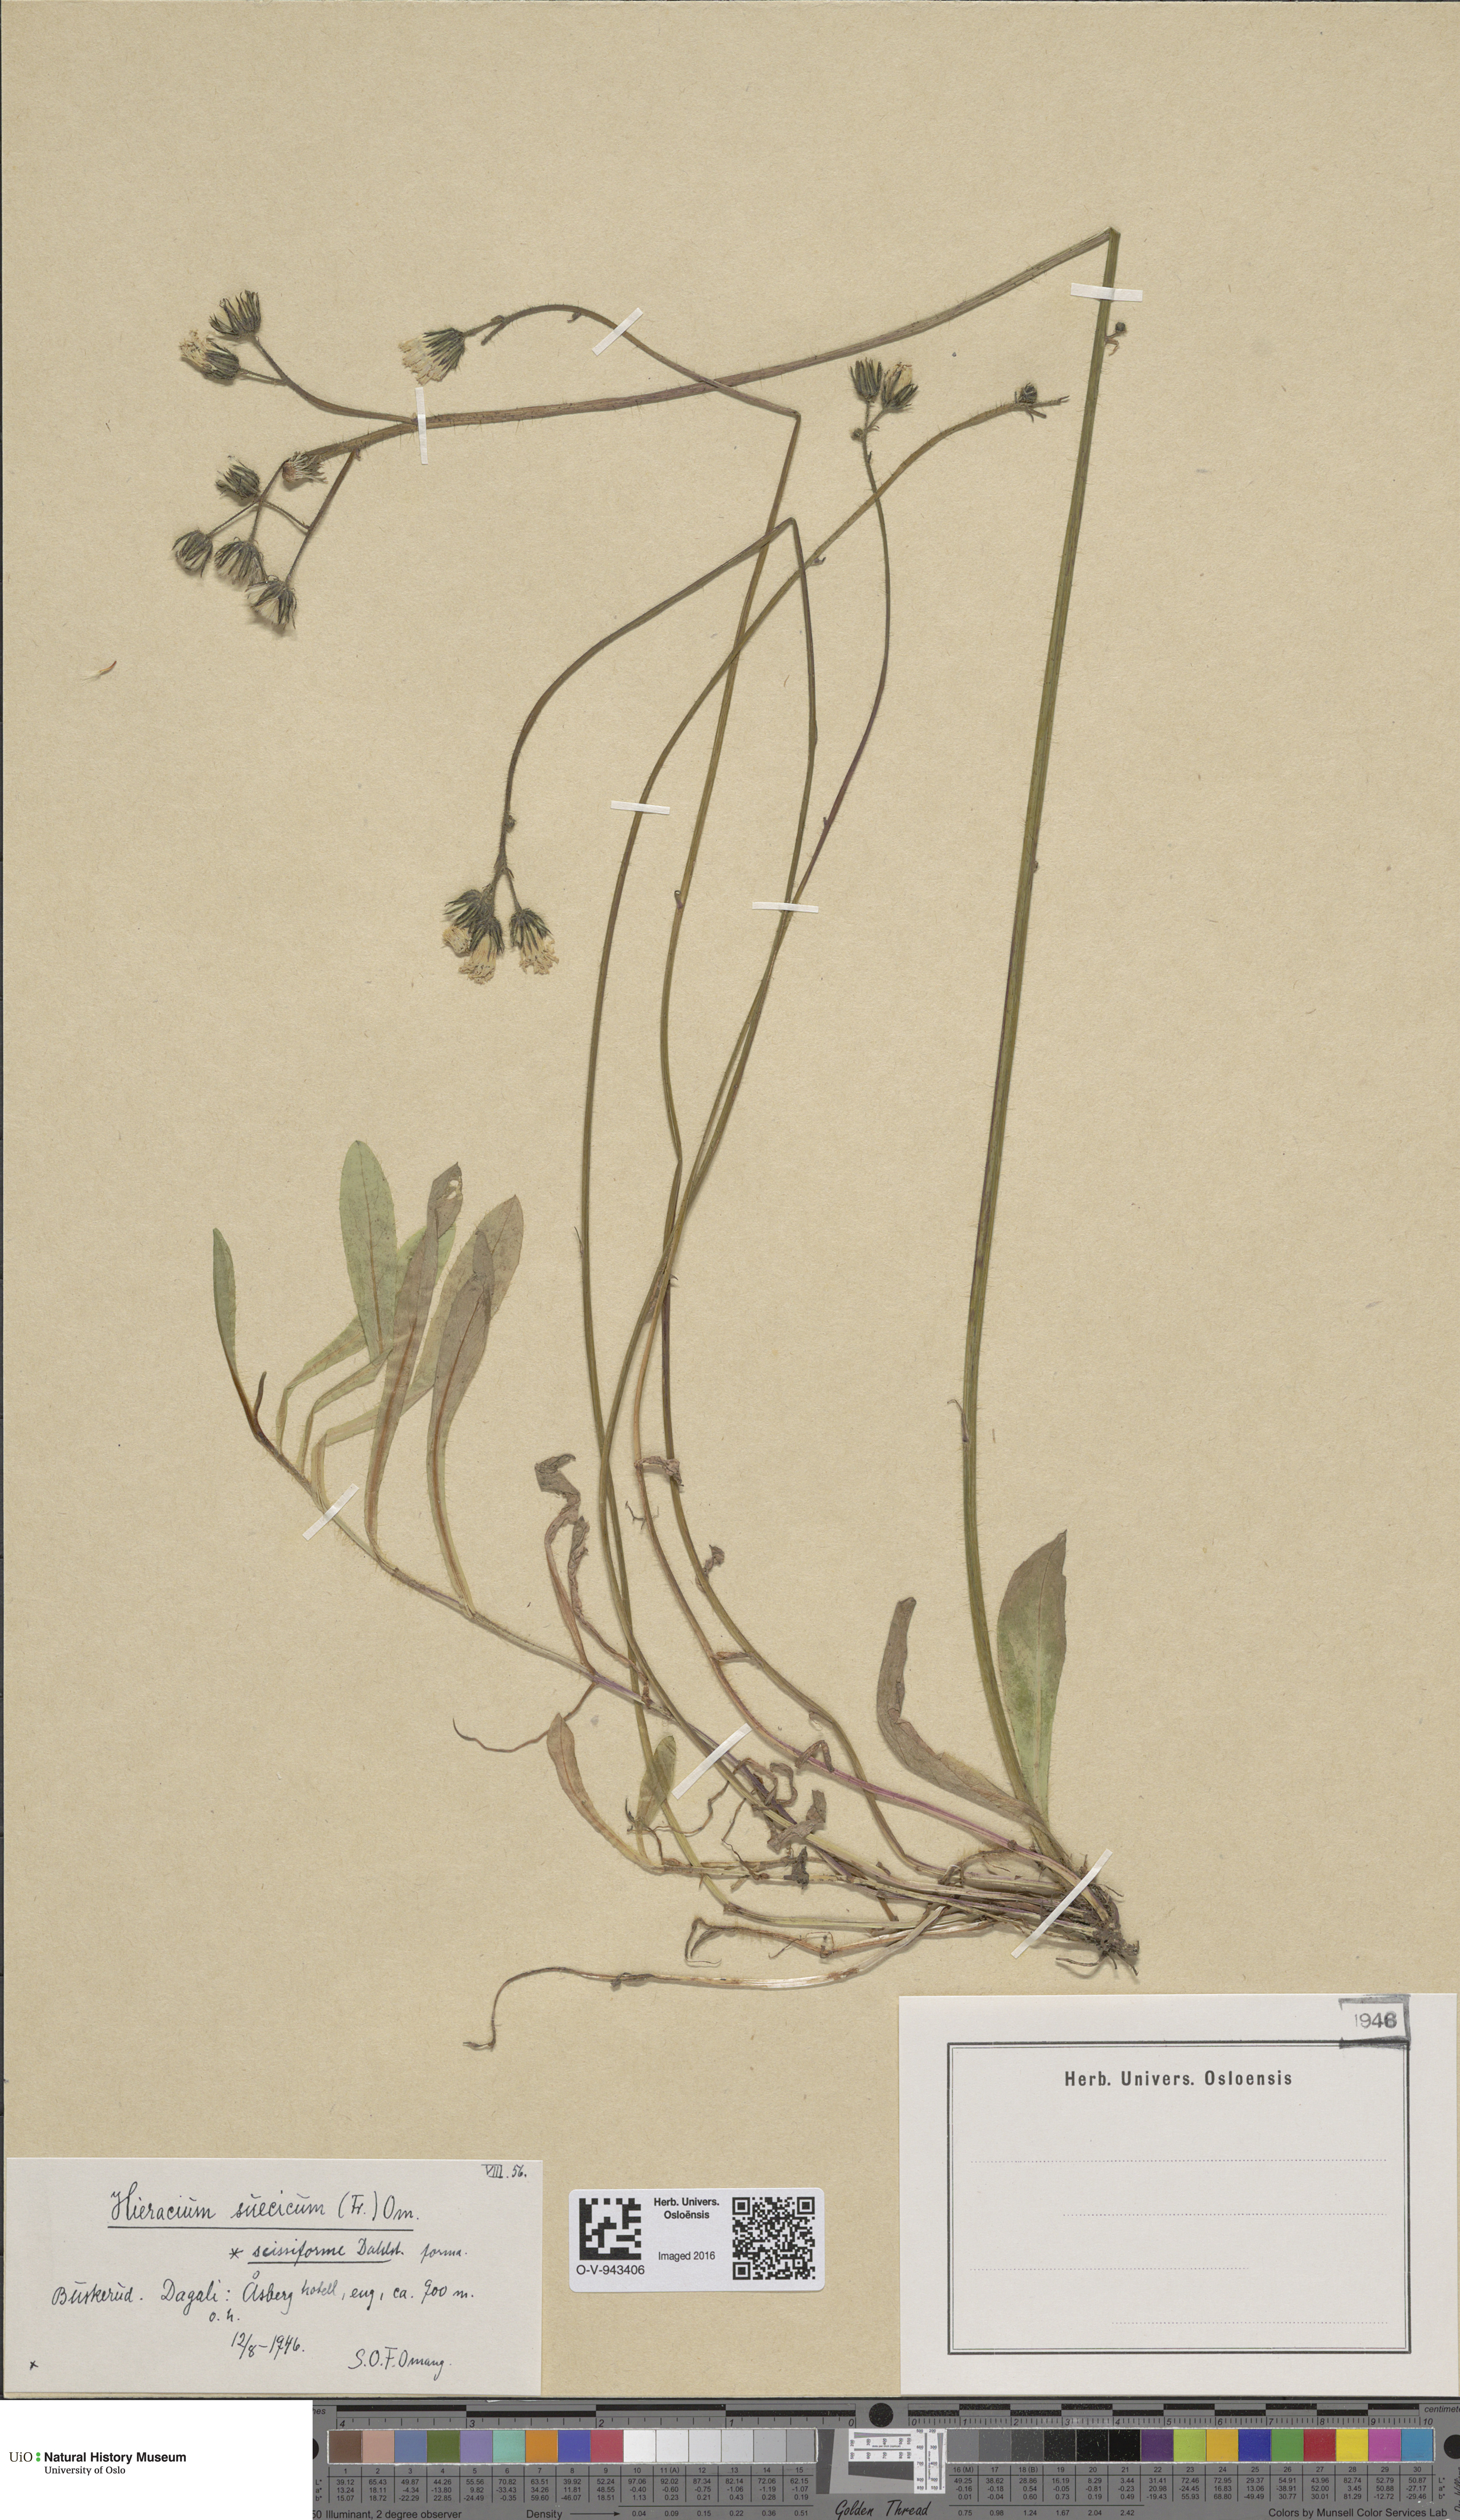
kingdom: Plantae
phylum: Tracheophyta
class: Magnoliopsida
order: Asterales
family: Asteraceae
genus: Pilosella
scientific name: Pilosella dubia
